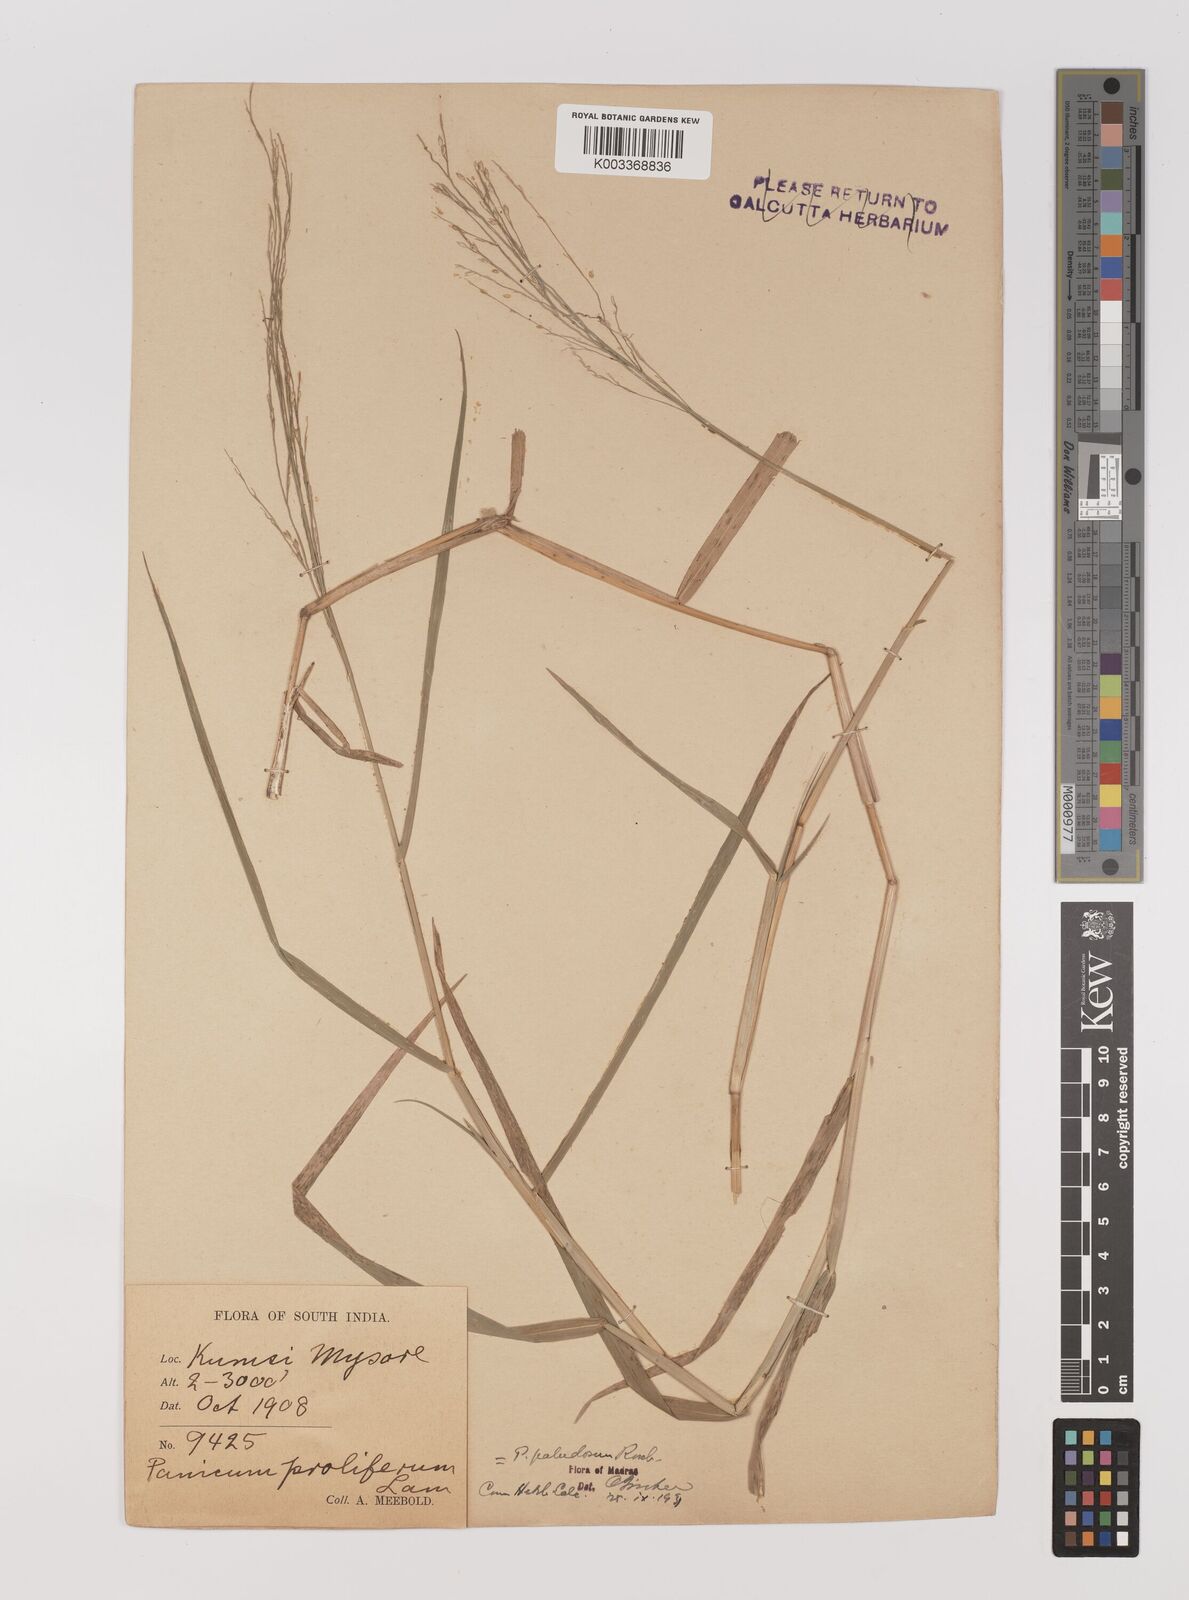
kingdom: Plantae
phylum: Tracheophyta
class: Liliopsida
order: Poales
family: Poaceae
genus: Louisiella
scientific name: Louisiella paludosa
